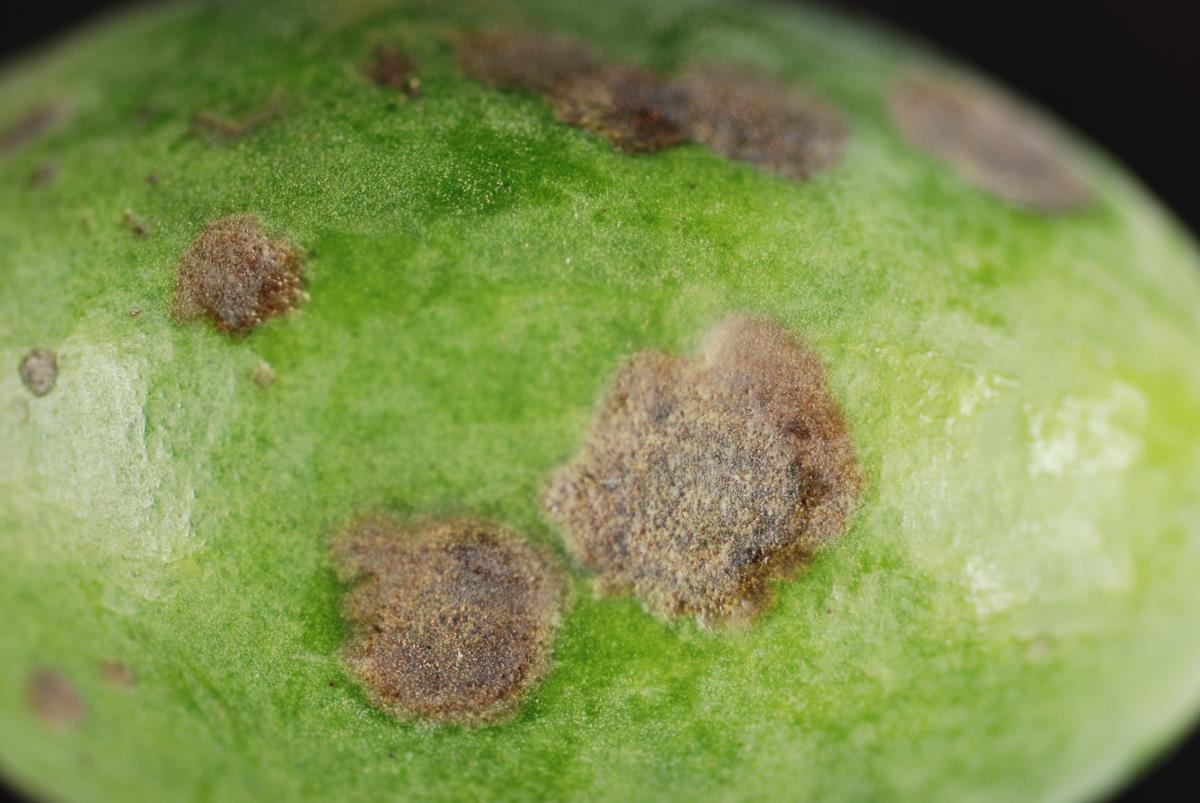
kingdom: Fungi
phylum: Ascomycota
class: Sordariomycetes
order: Glomerellales
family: Glomerellaceae
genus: Colletotrichum
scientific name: Colletotrichum
